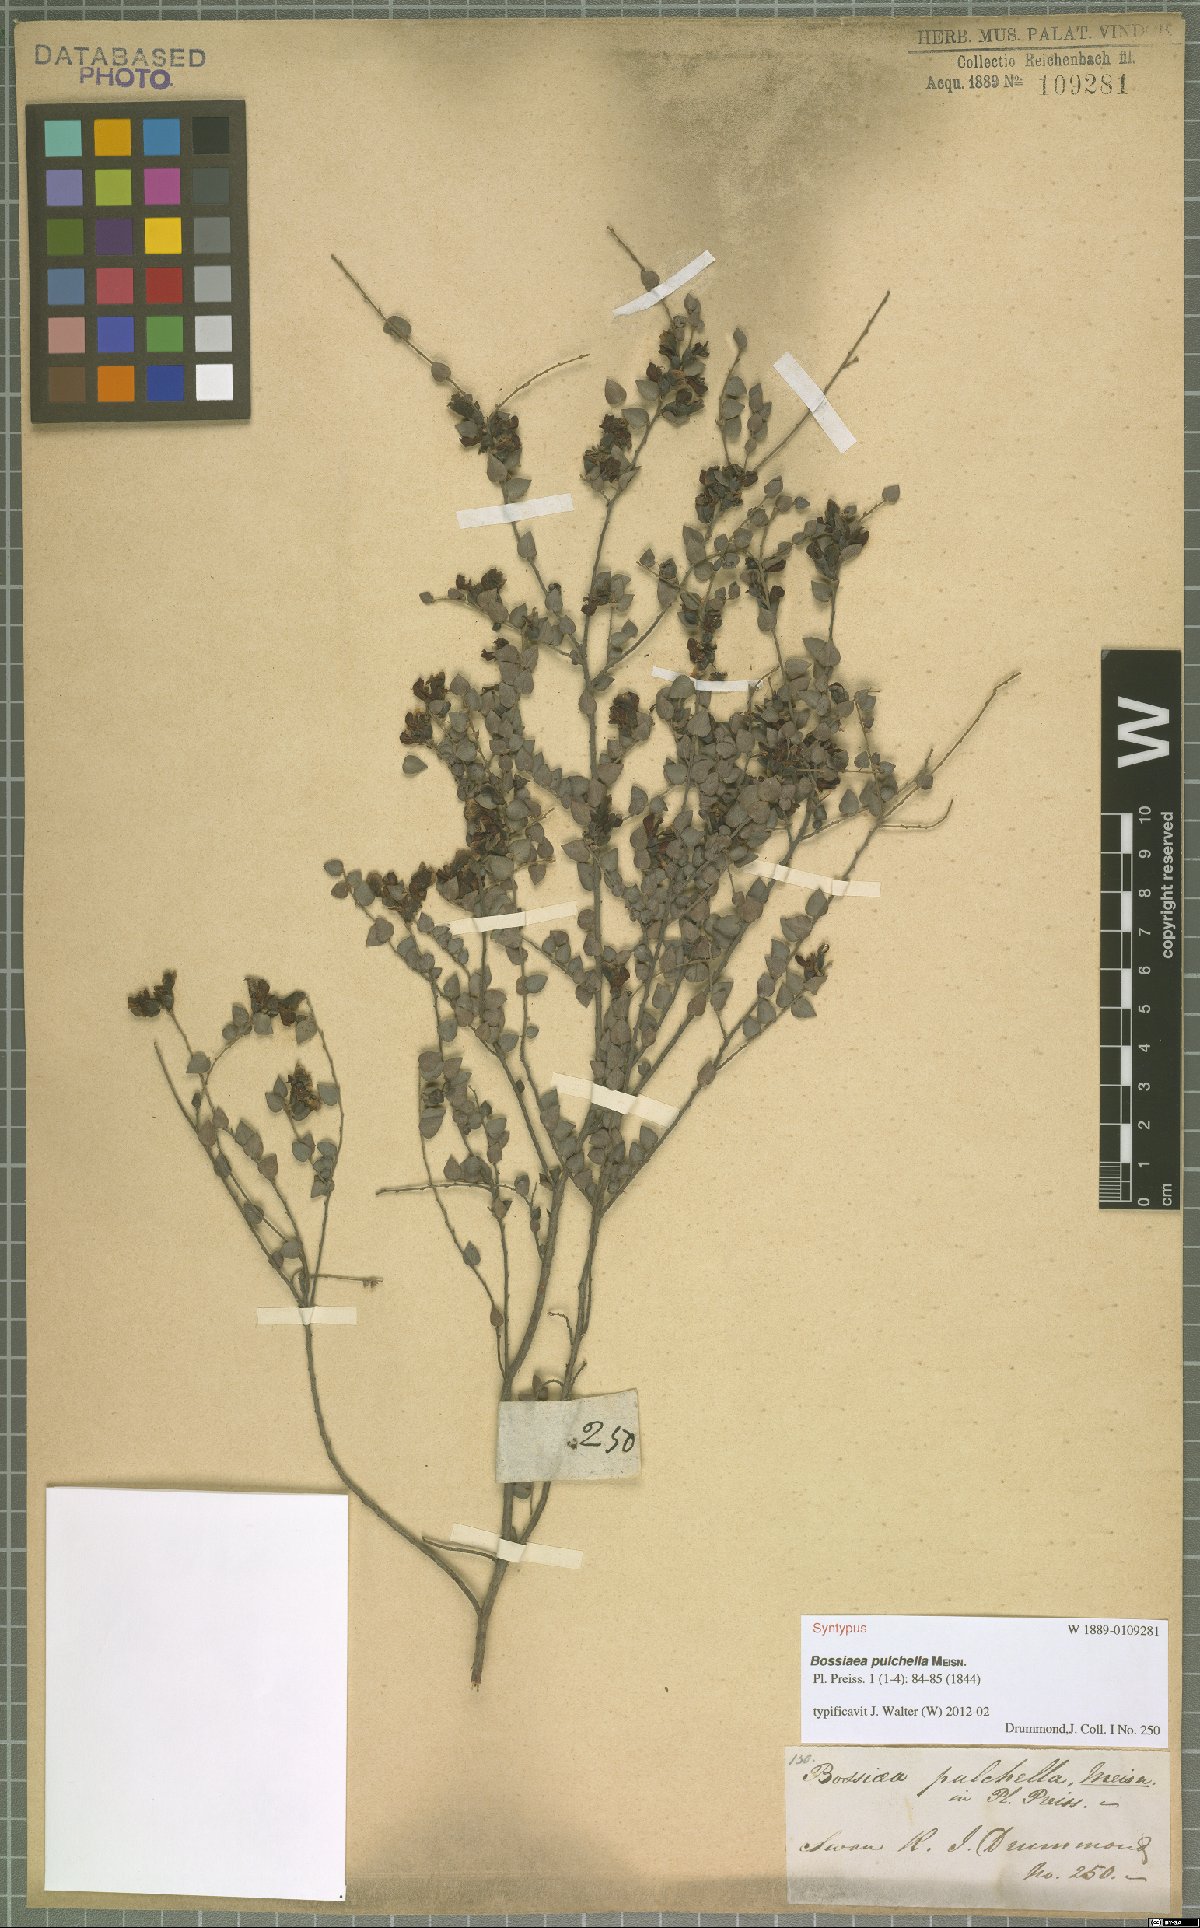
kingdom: Plantae
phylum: Tracheophyta
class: Magnoliopsida
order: Fabales
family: Fabaceae
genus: Bossiaea
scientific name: Bossiaea pulchella
